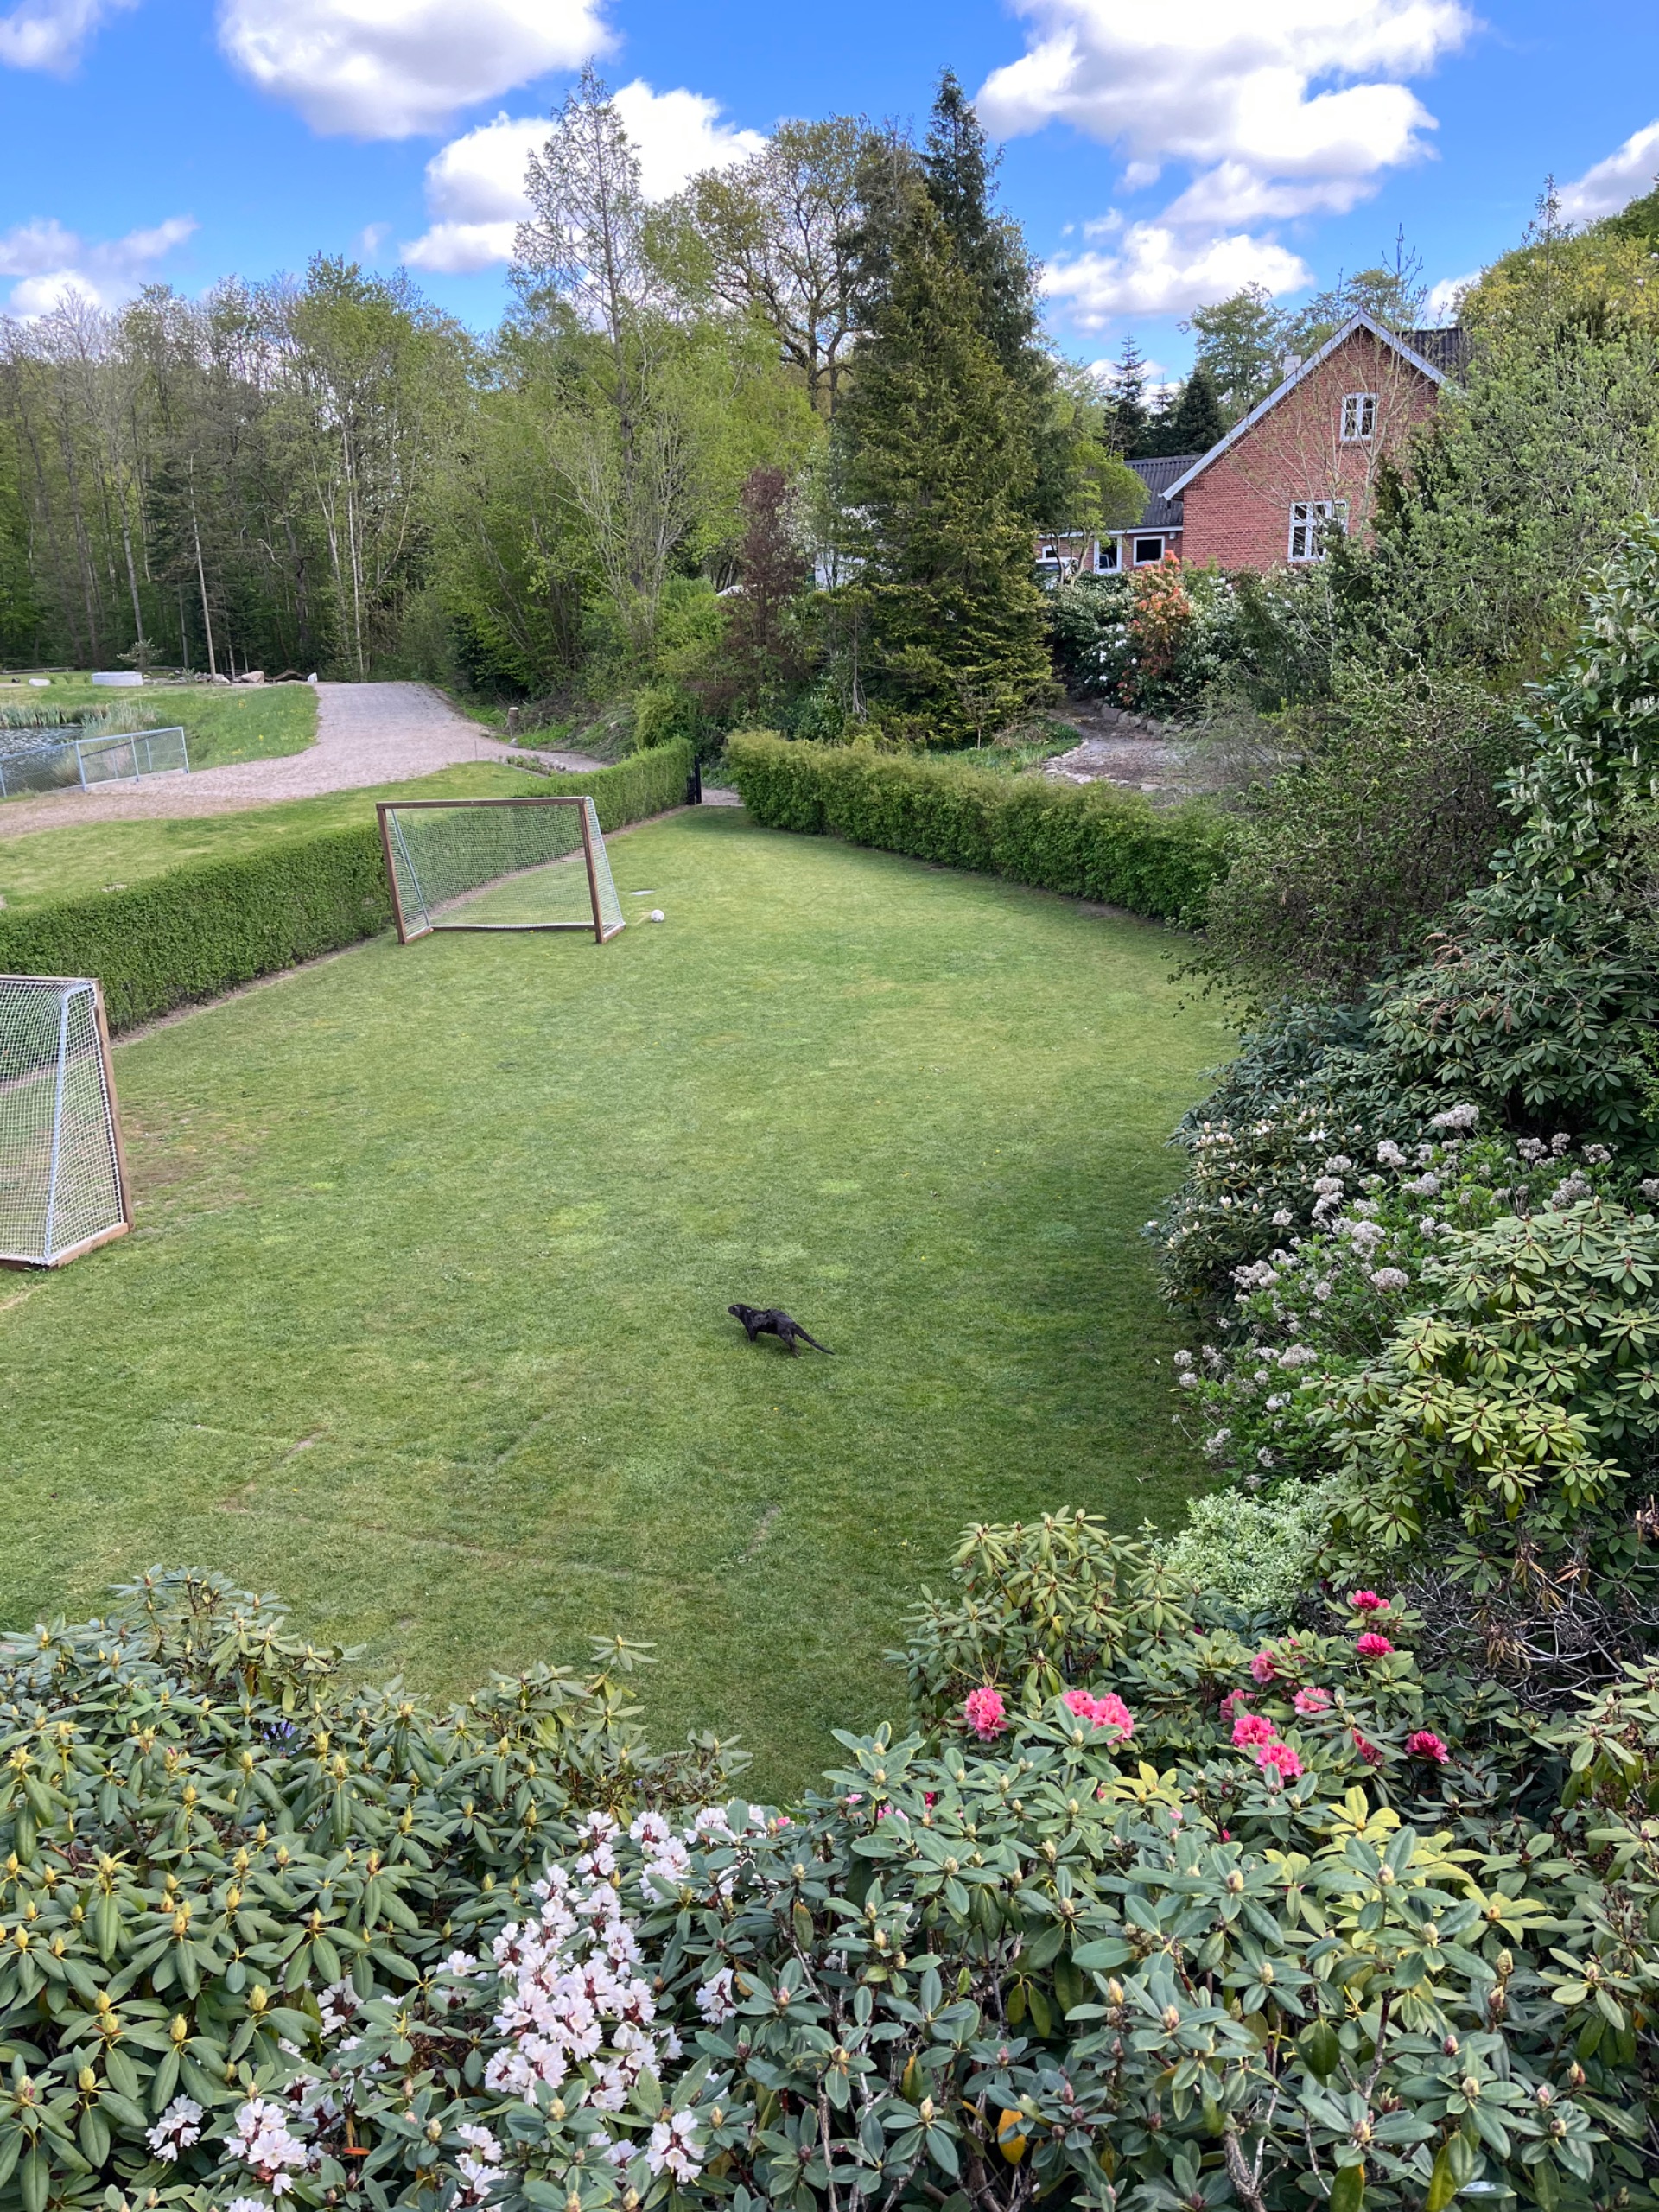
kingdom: Animalia
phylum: Chordata
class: Mammalia
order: Carnivora
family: Mustelidae
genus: Lutra
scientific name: Lutra lutra
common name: Odder
